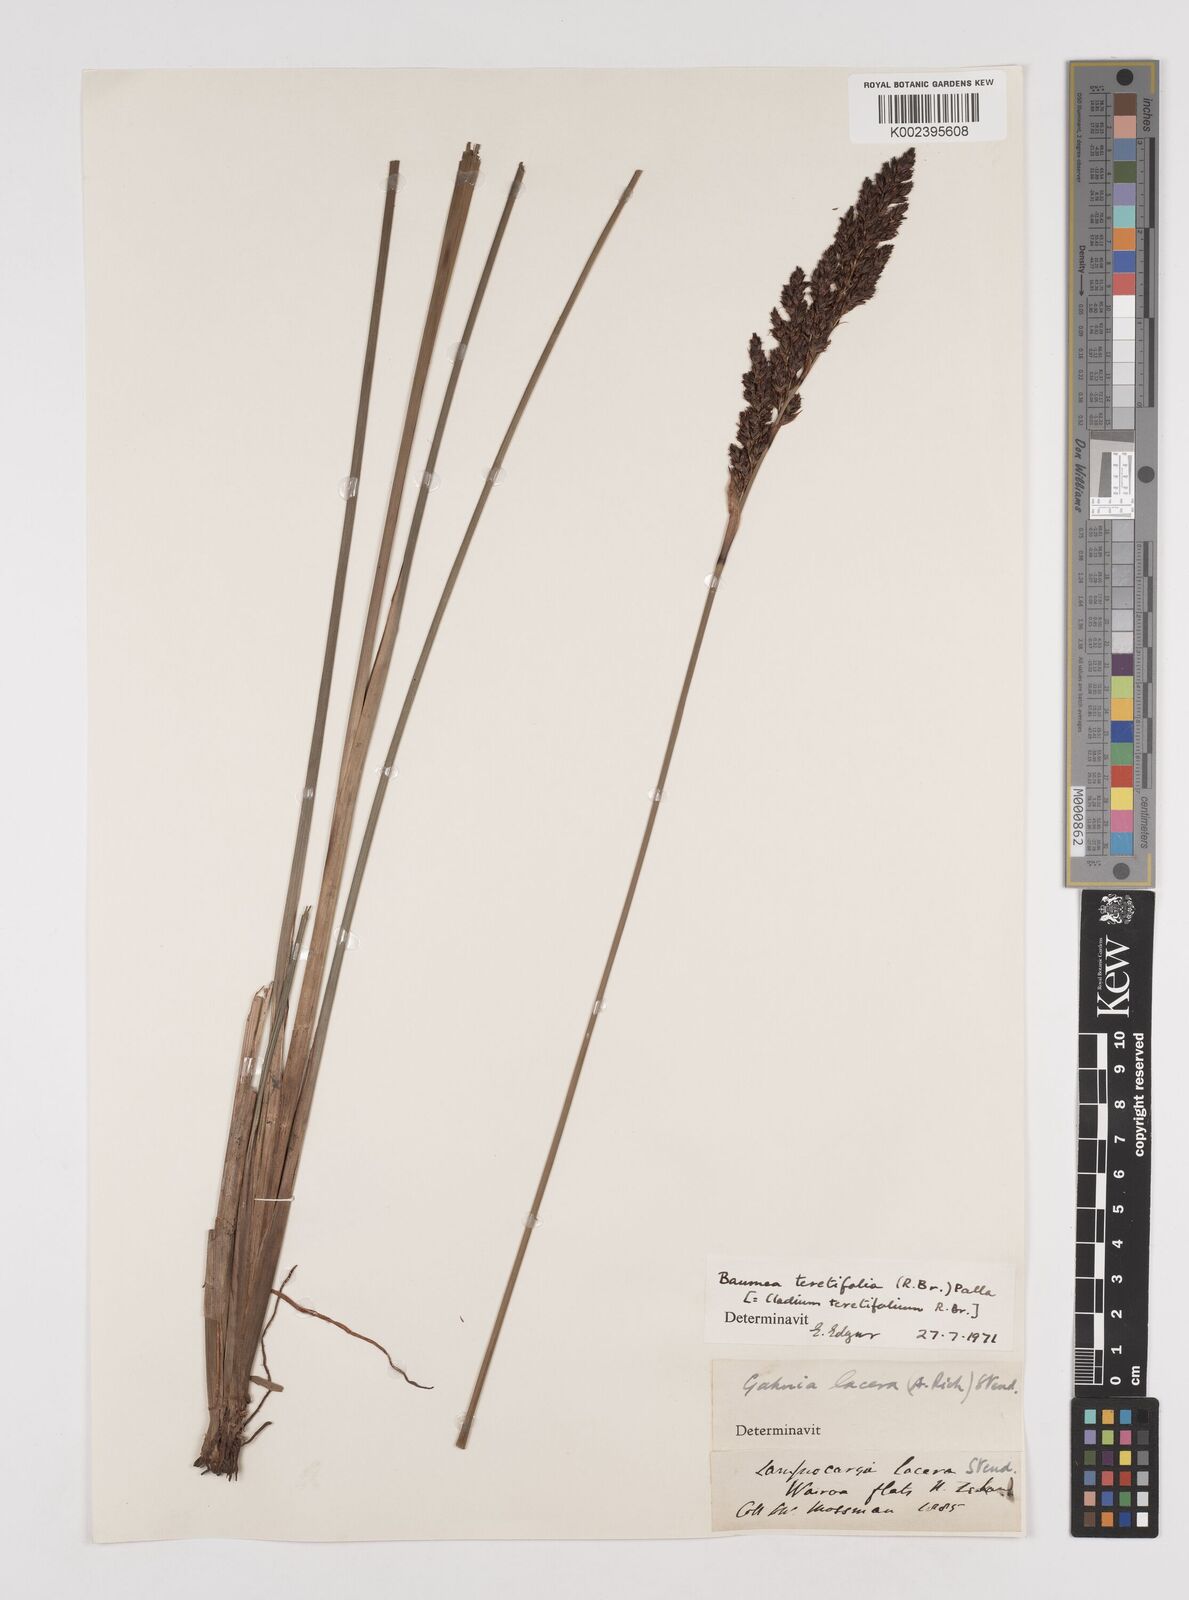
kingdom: Plantae
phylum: Tracheophyta
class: Liliopsida
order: Poales
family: Cyperaceae
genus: Machaerina
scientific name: Machaerina teretifolia
